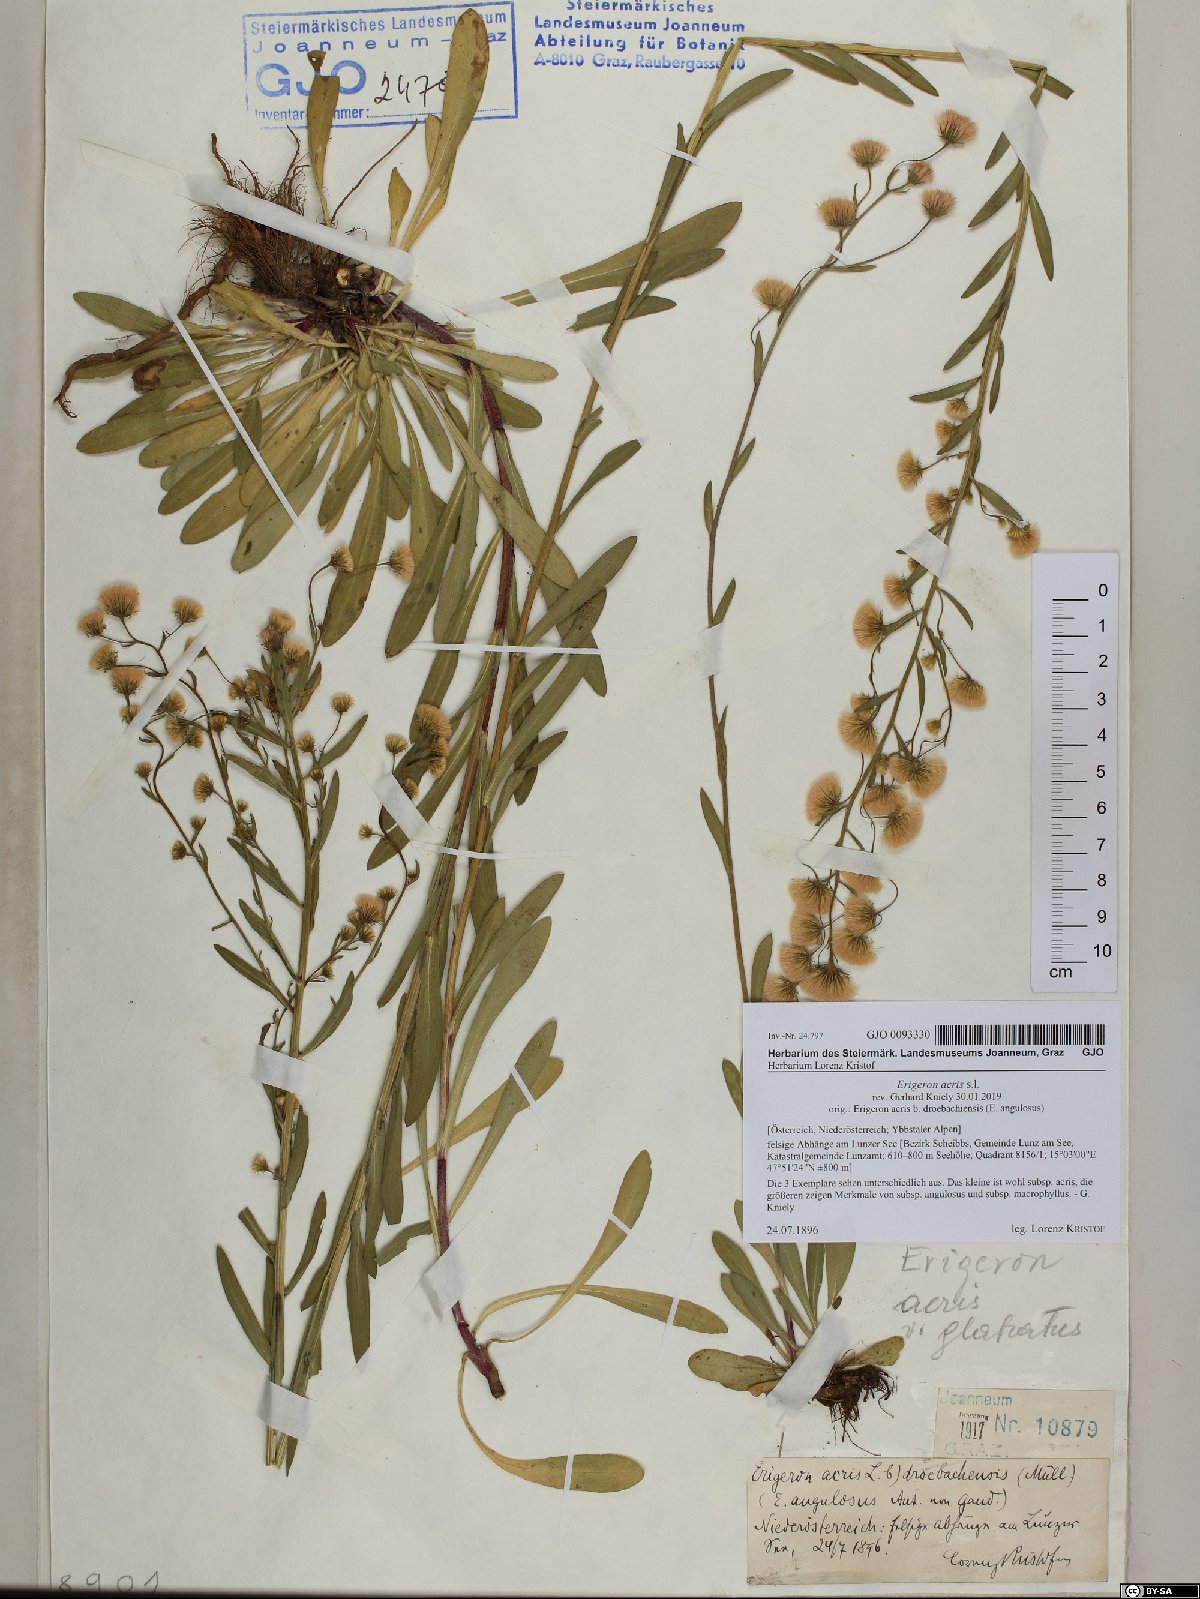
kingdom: Plantae
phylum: Tracheophyta
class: Magnoliopsida
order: Asterales
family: Asteraceae
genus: Erigeron
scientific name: Erigeron acris
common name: Blue fleabane
